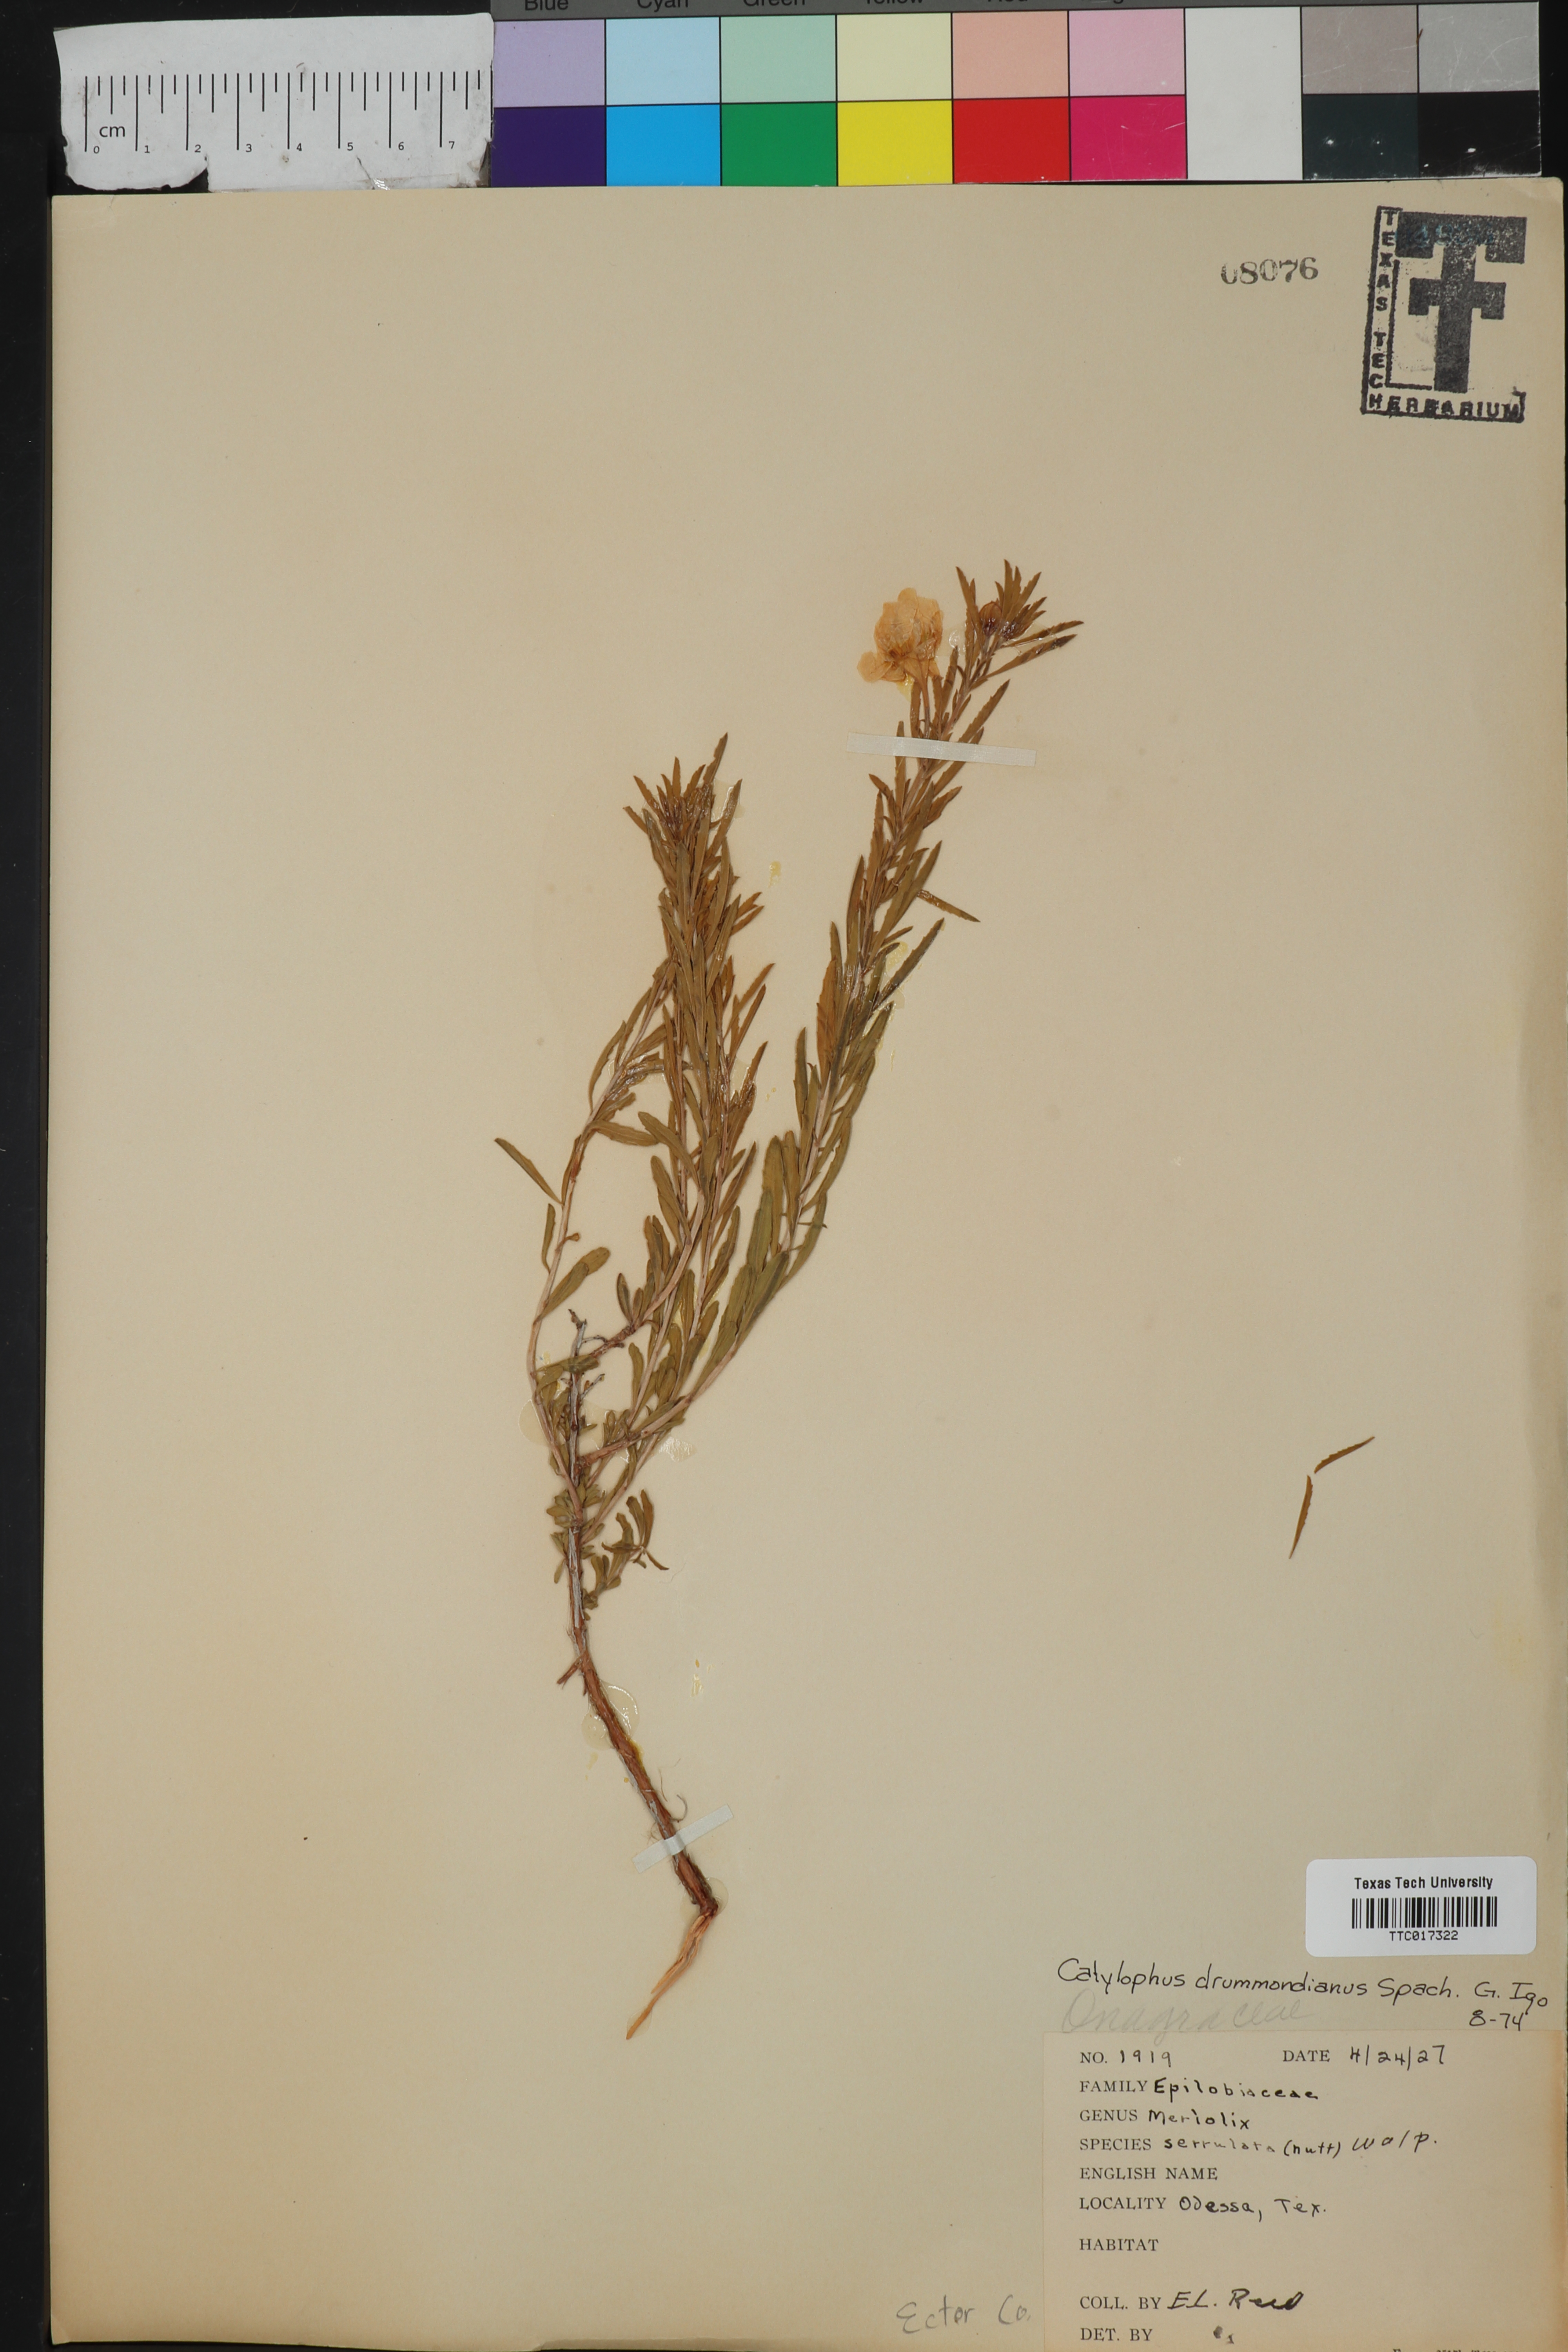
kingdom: Plantae
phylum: Tracheophyta
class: Magnoliopsida
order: Myrtales
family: Onagraceae
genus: Oenothera
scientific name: Oenothera serrulata
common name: Half-shrub calylophus
